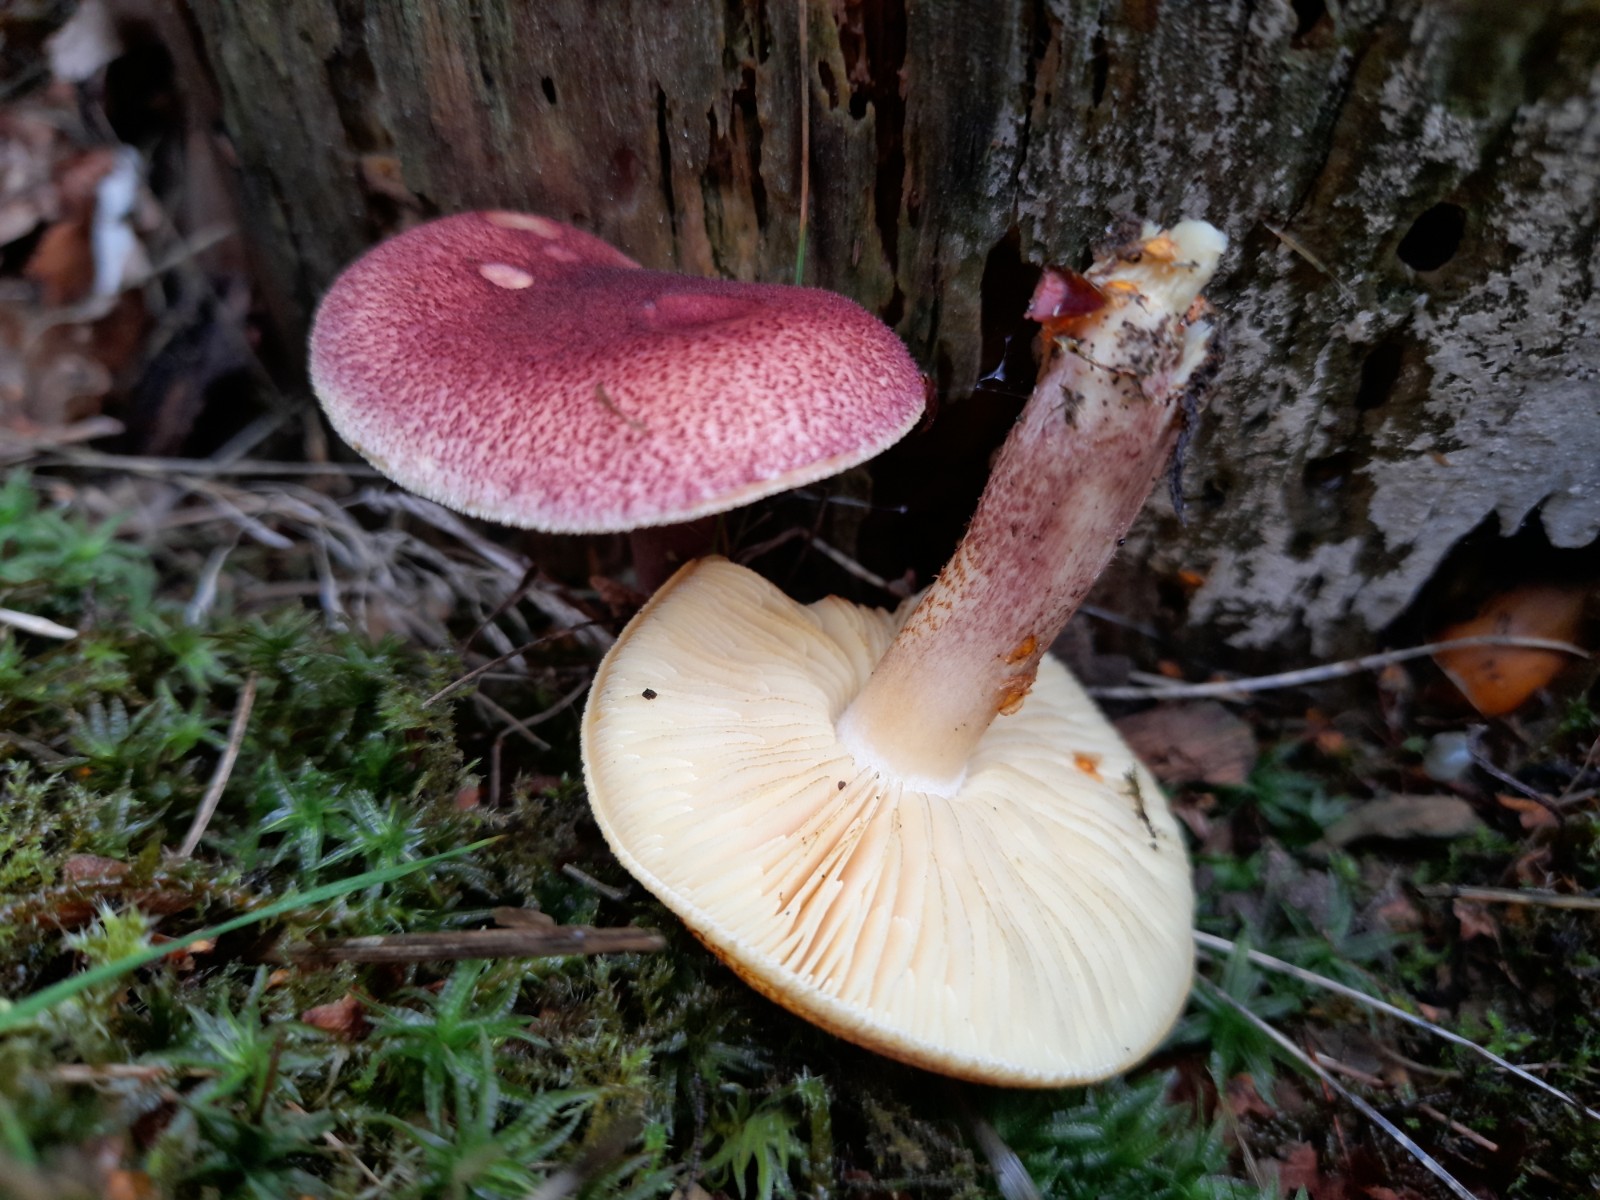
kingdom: Fungi
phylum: Basidiomycota
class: Agaricomycetes
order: Agaricales
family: Tricholomataceae
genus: Tricholomopsis
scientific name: Tricholomopsis rutilans
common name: purpur-væbnerhat
